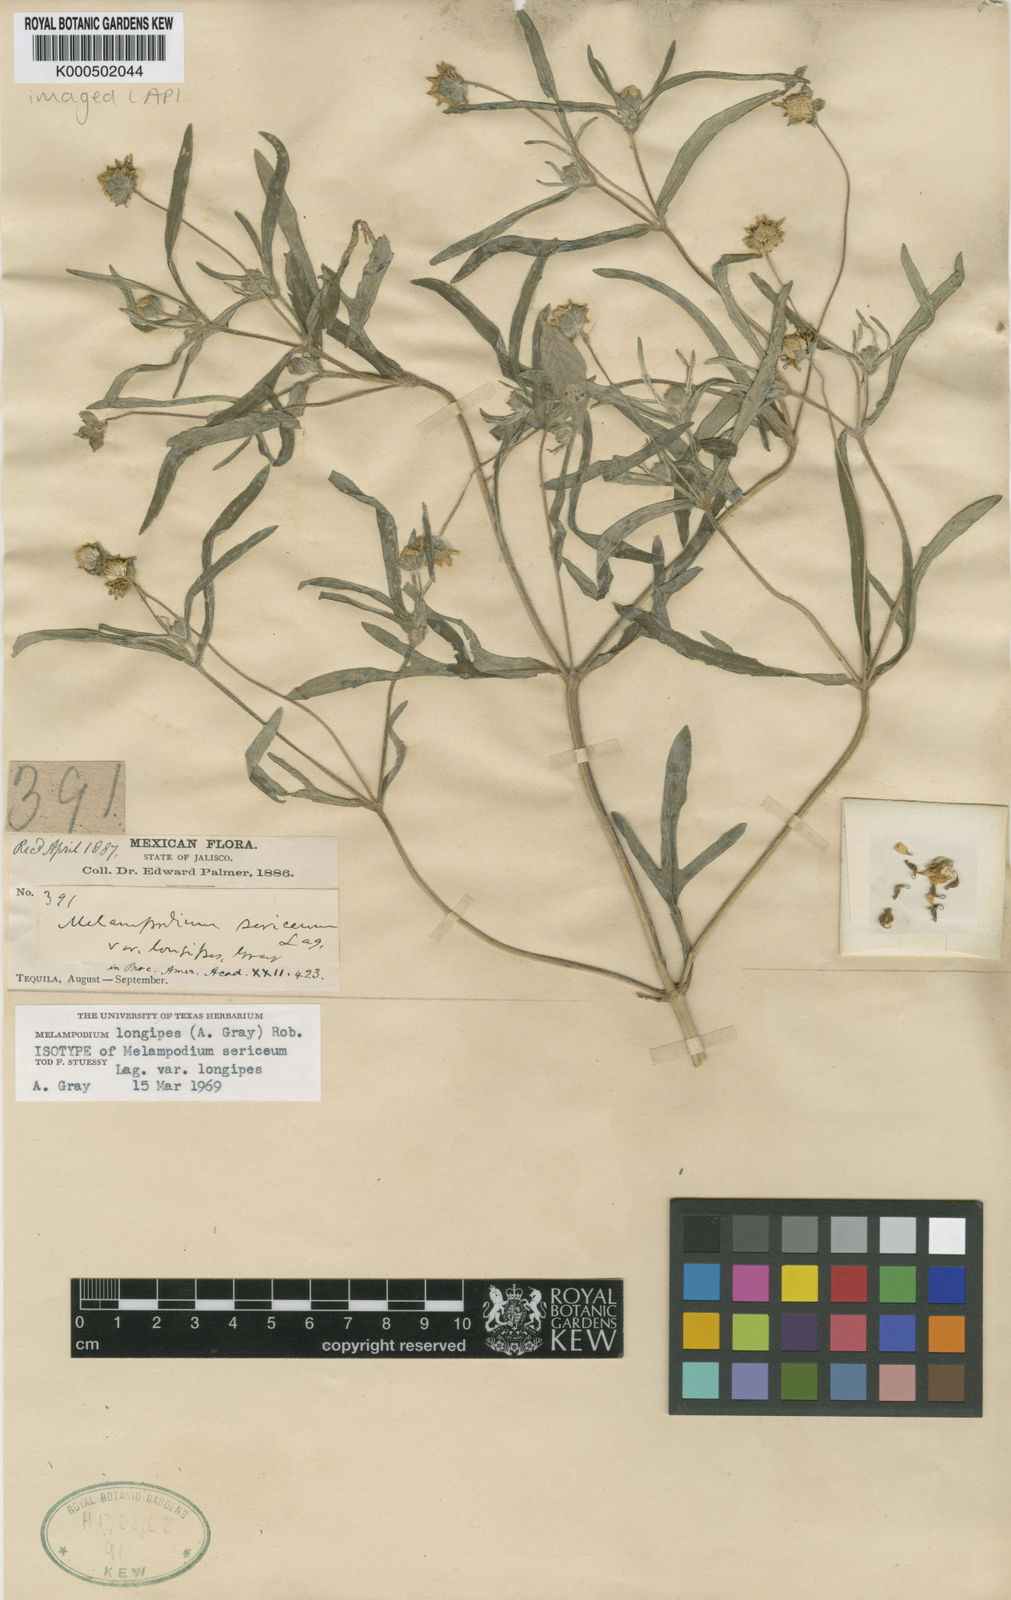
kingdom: Plantae
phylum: Tracheophyta
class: Magnoliopsida
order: Asterales
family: Asteraceae
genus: Melampodium
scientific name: Melampodium longipes
